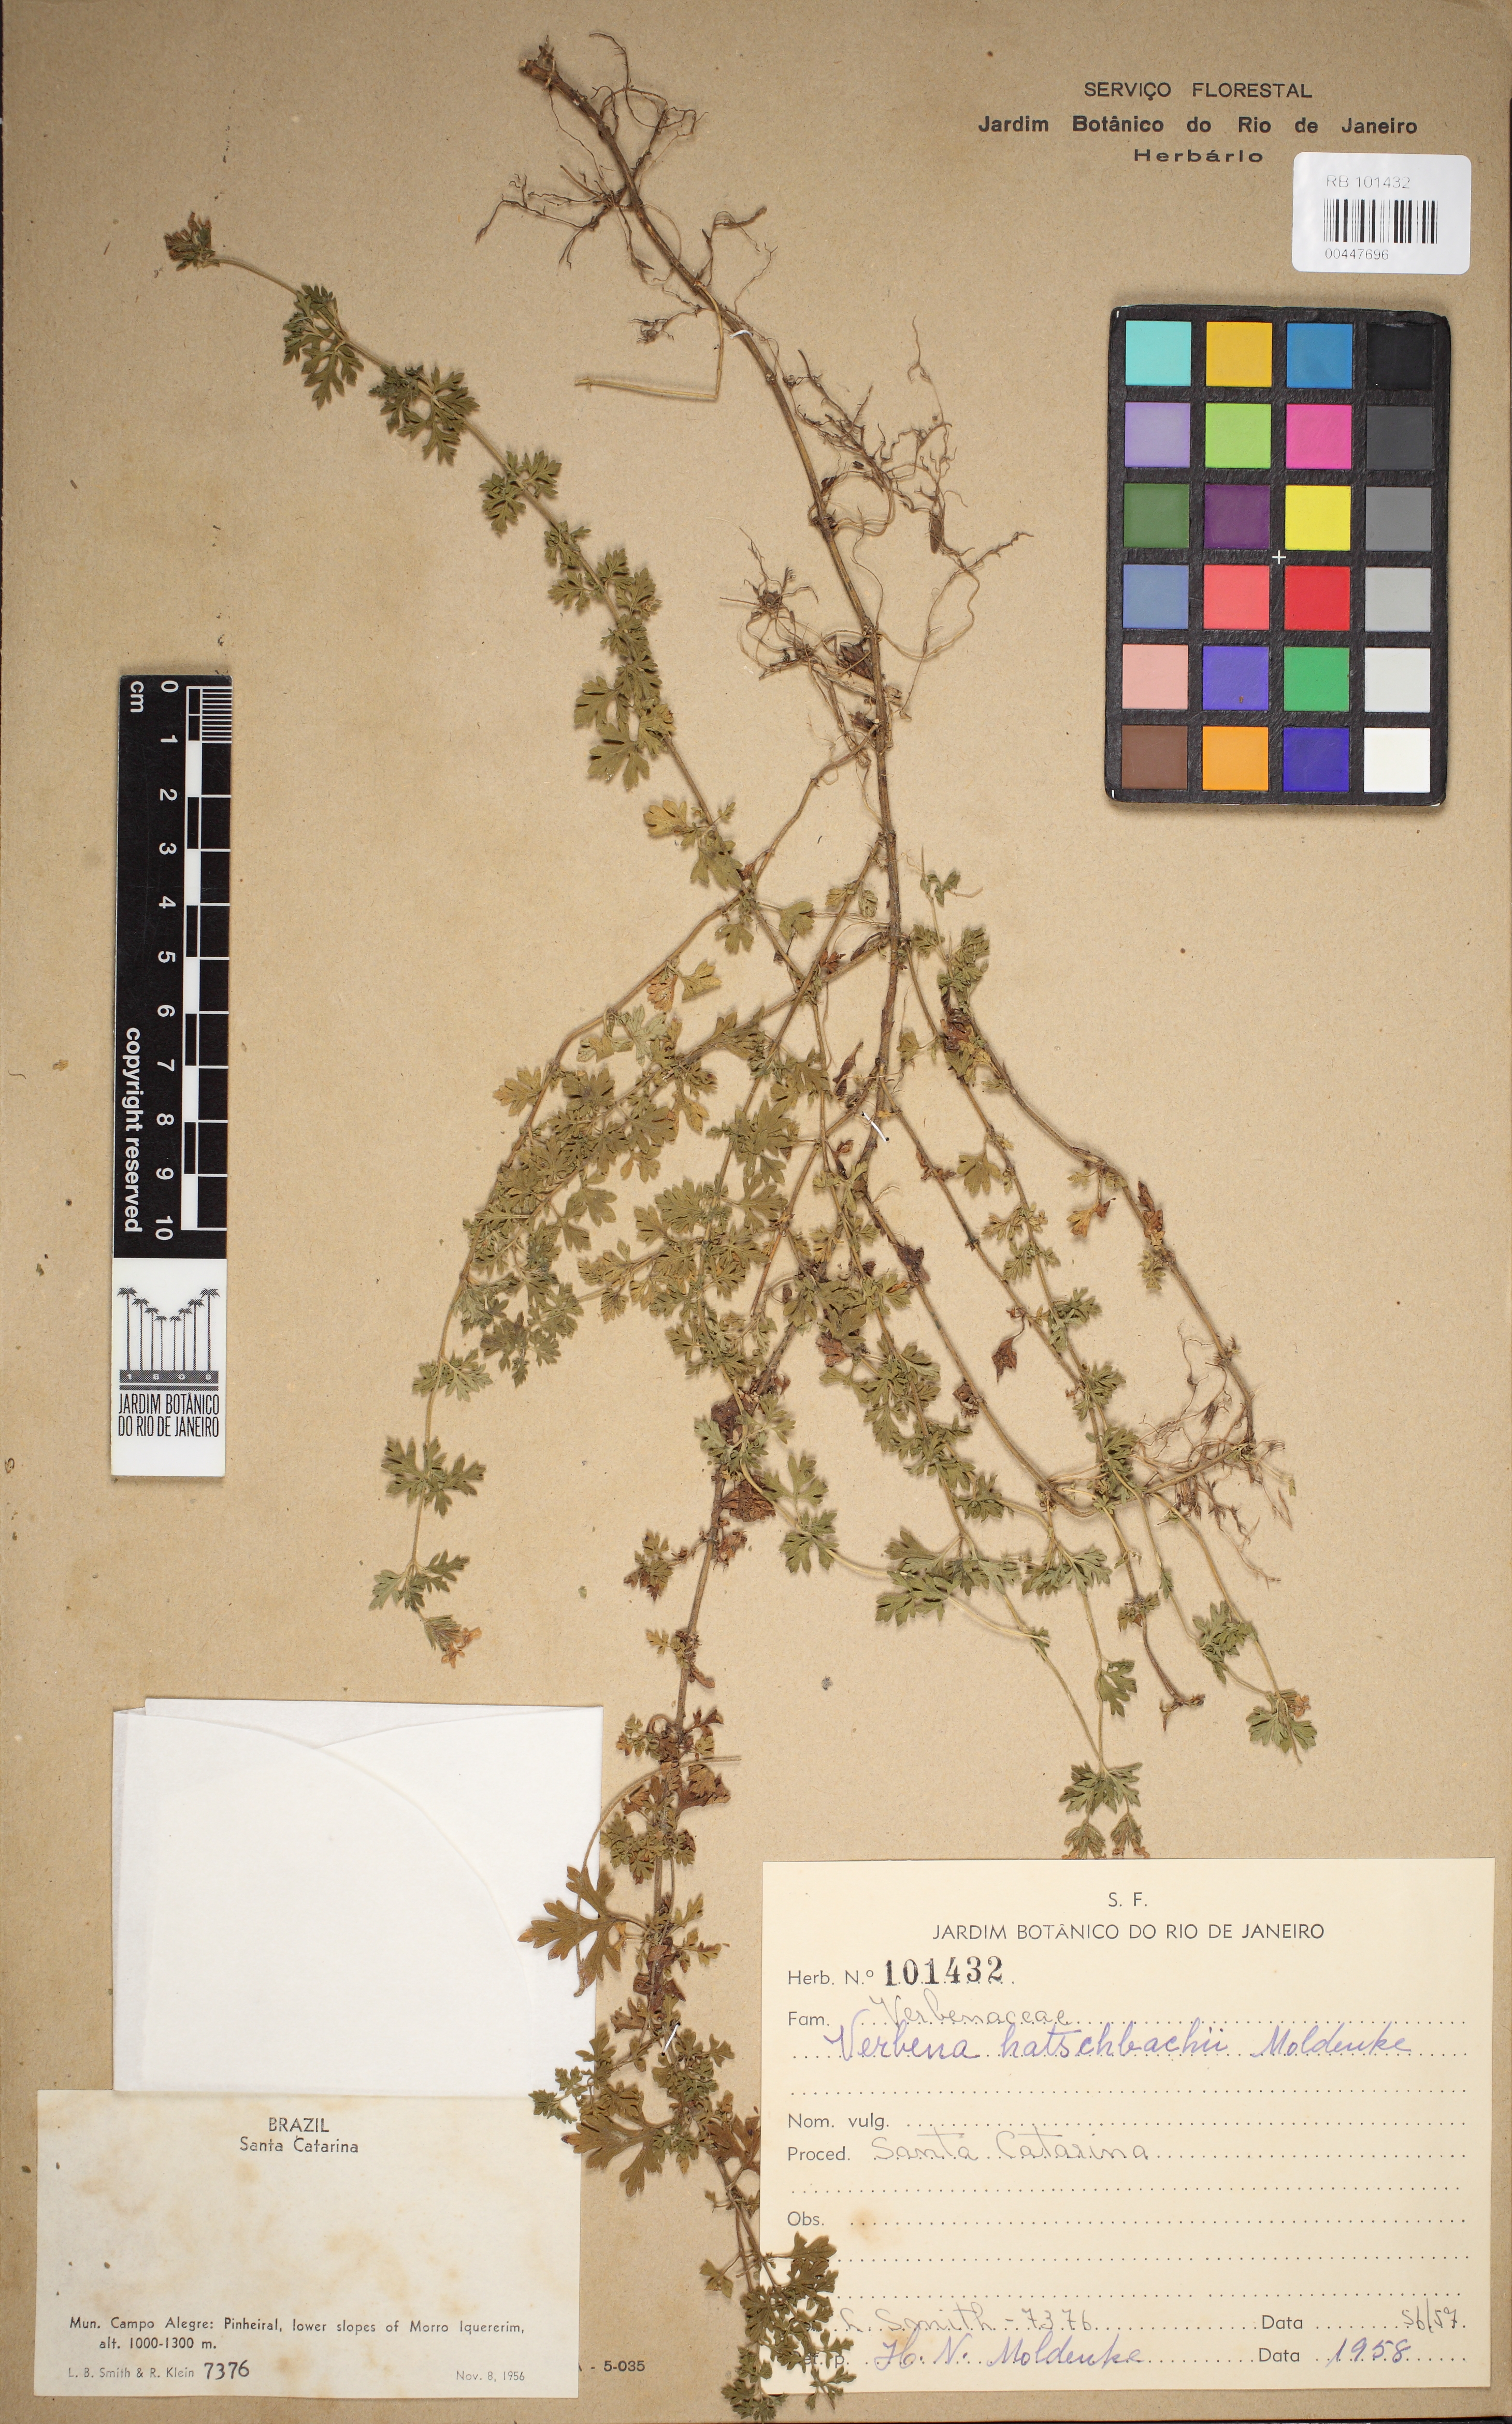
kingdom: Plantae
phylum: Tracheophyta
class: Magnoliopsida
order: Lamiales
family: Verbenaceae
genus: Verbena
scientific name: Verbena hatschbachii
